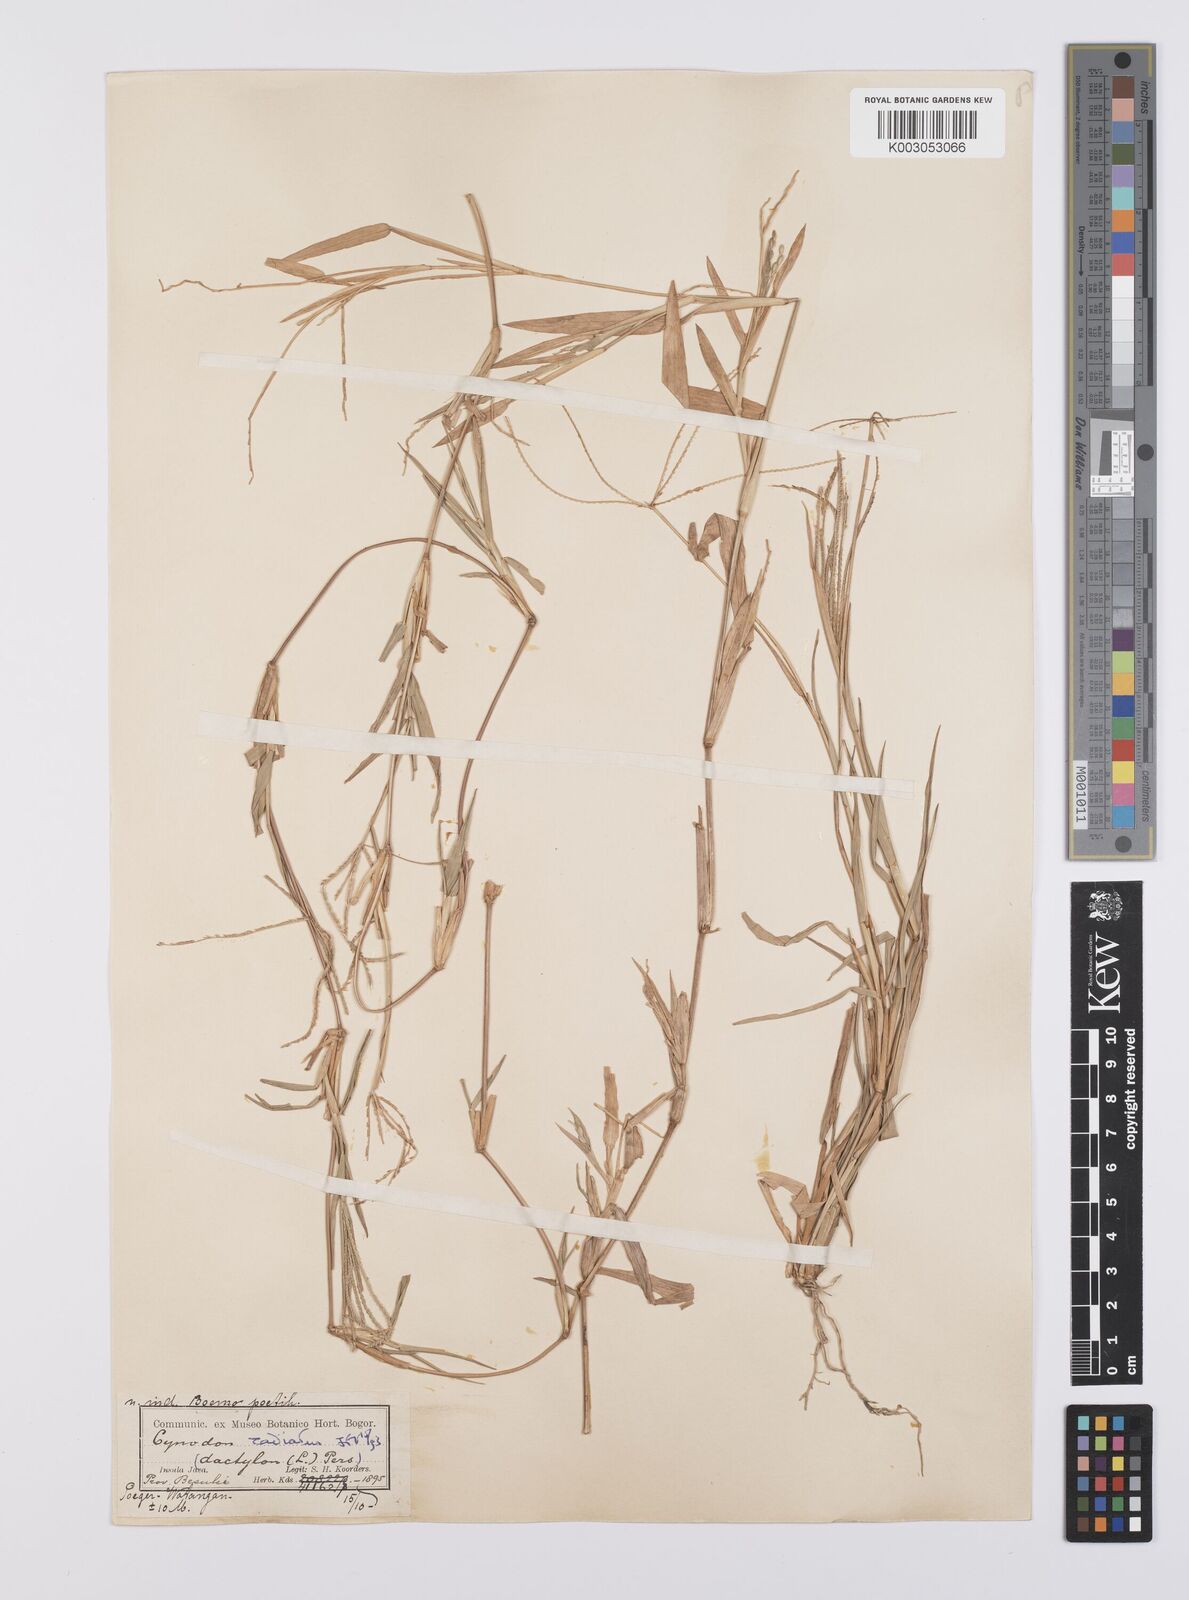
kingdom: Plantae
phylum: Tracheophyta
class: Liliopsida
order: Poales
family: Poaceae
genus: Cynodon
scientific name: Cynodon radiatus
